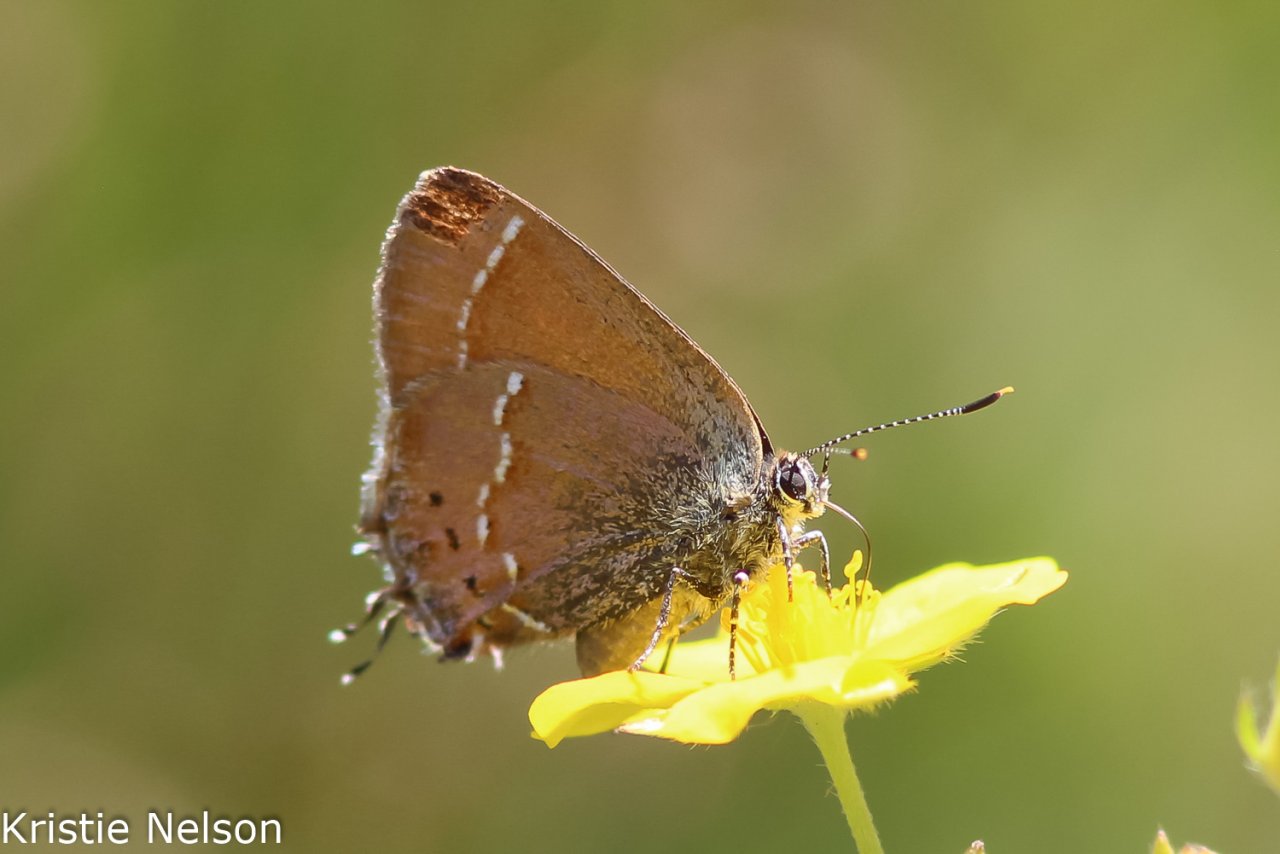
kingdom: Animalia
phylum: Arthropoda
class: Insecta
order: Lepidoptera
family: Lycaenidae
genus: Mitoura
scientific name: Mitoura gryneus
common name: Juniper Hairstreak
